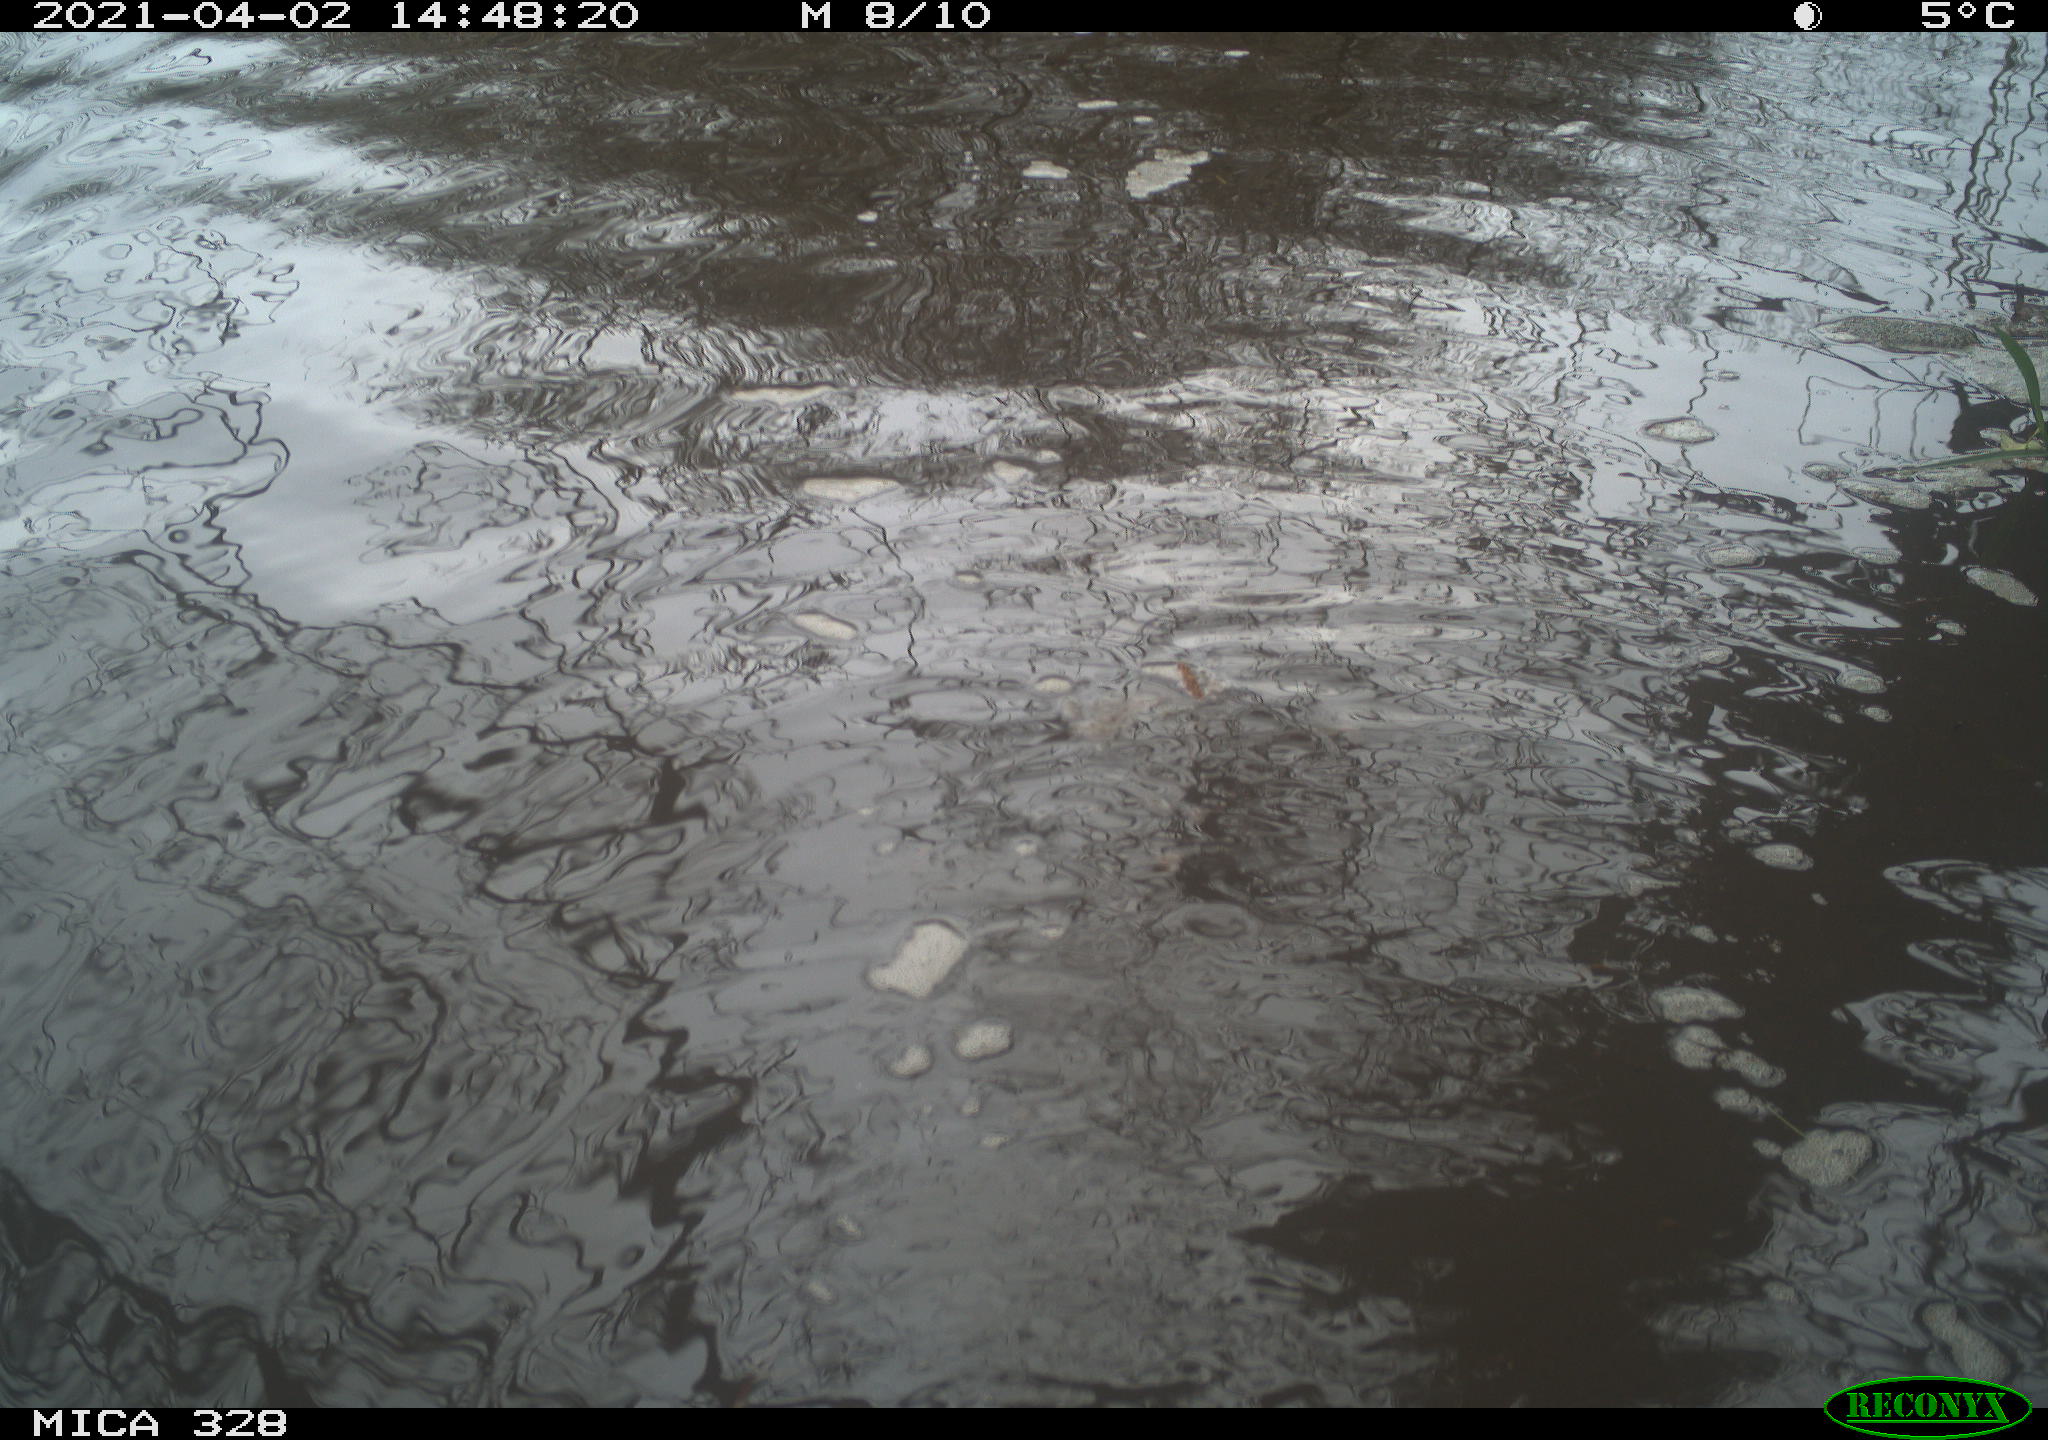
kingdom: Animalia
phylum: Chordata
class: Mammalia
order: Rodentia
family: Cricetidae
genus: Ondatra
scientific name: Ondatra zibethicus
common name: Muskrat
